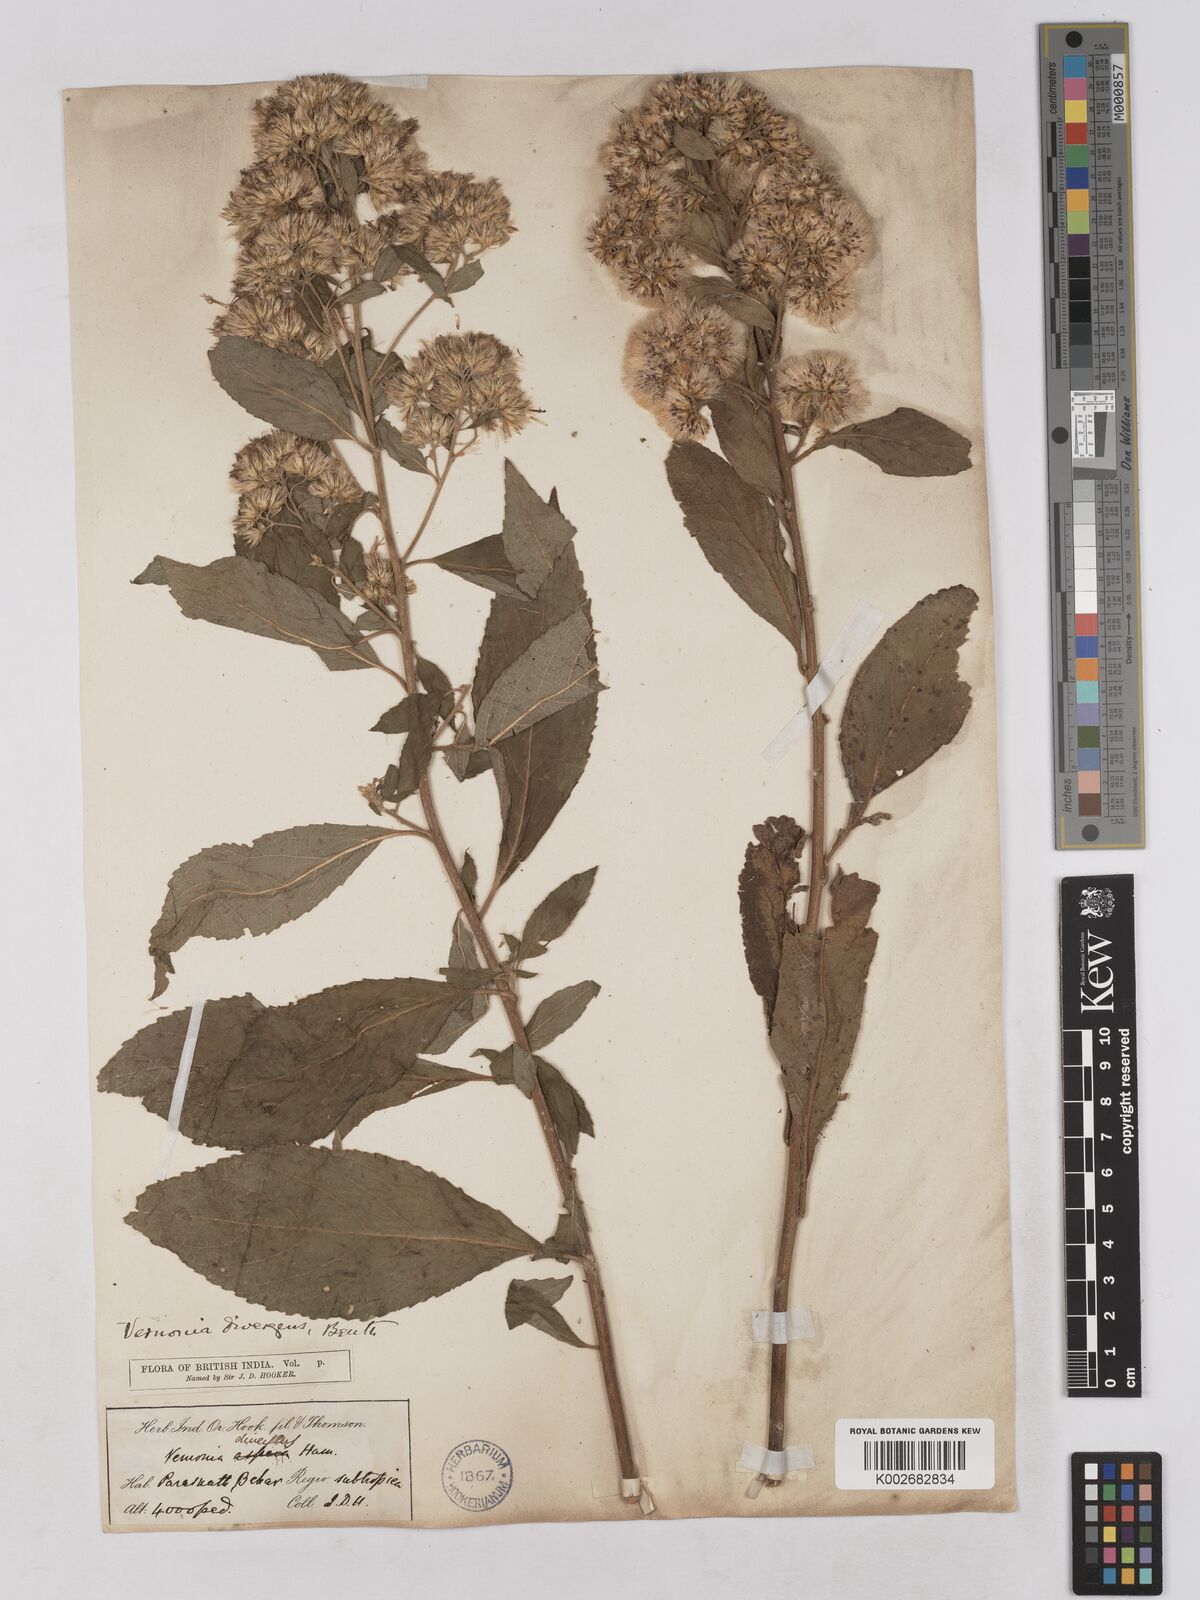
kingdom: Plantae
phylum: Tracheophyta
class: Magnoliopsida
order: Asterales
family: Asteraceae
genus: Acilepis
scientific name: Acilepis divergens
